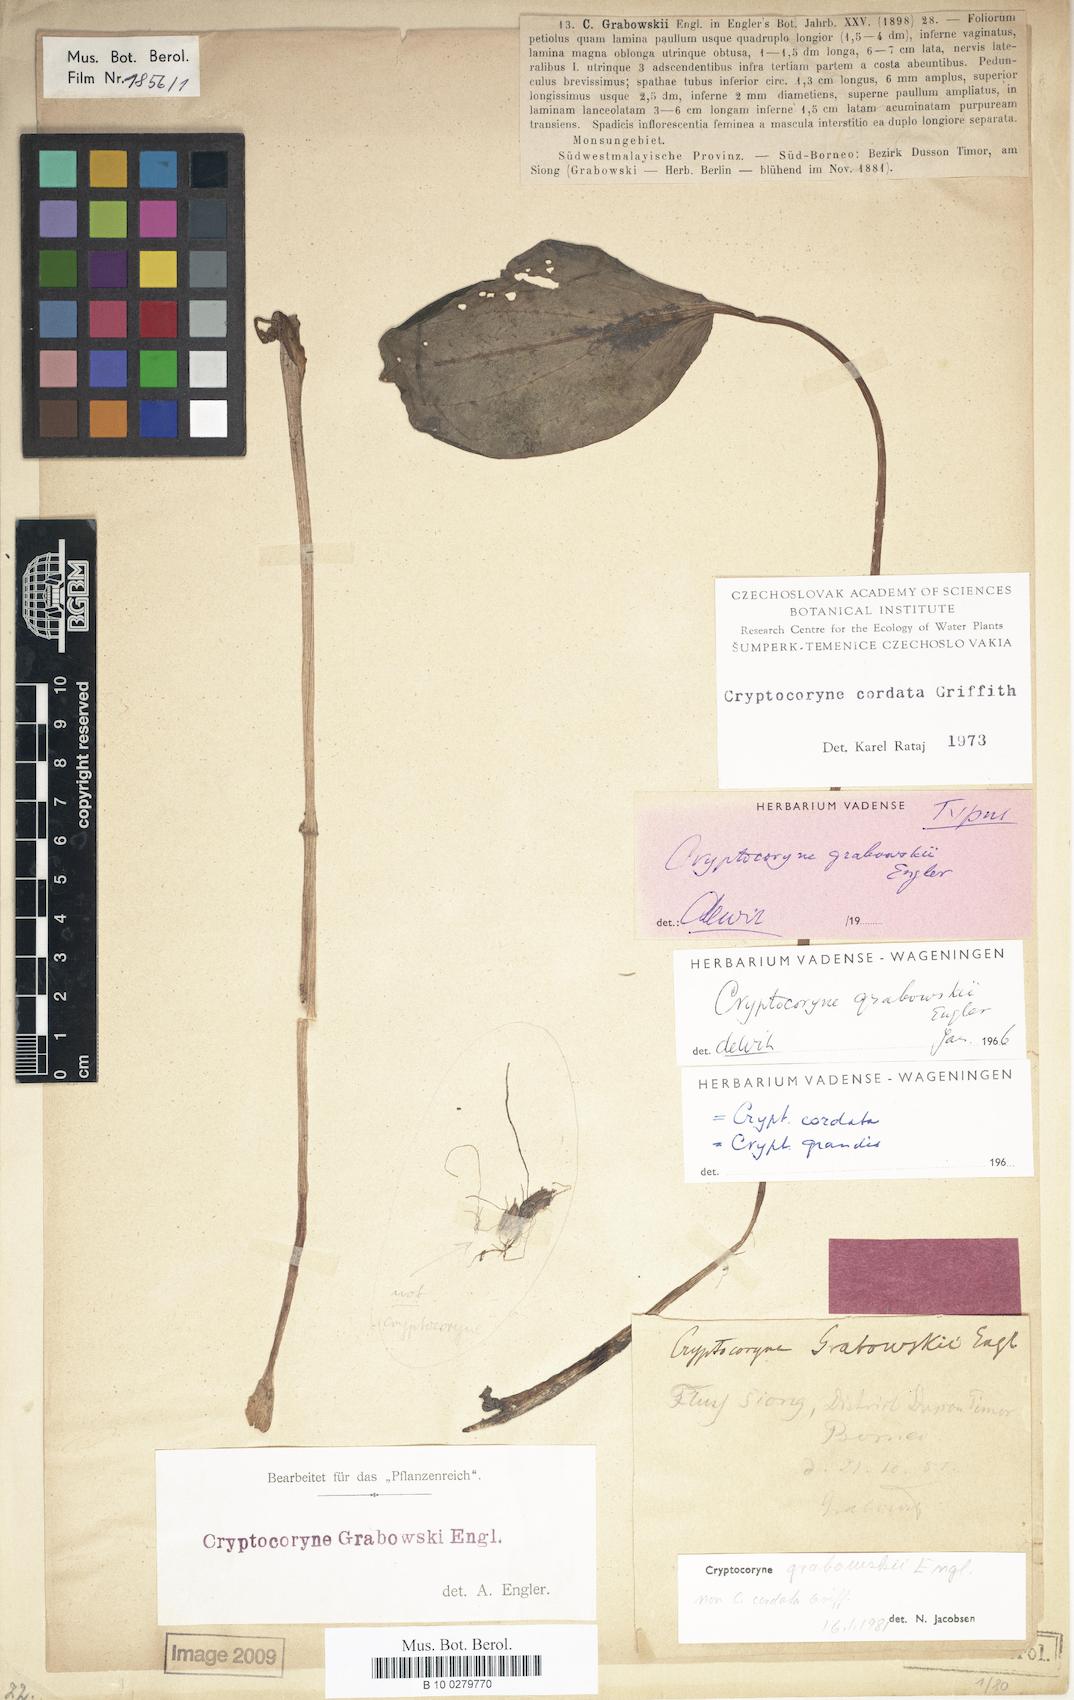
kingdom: Plantae
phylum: Tracheophyta
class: Liliopsida
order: Alismatales
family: Araceae
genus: Cryptocoryne
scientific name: Cryptocoryne cordata
